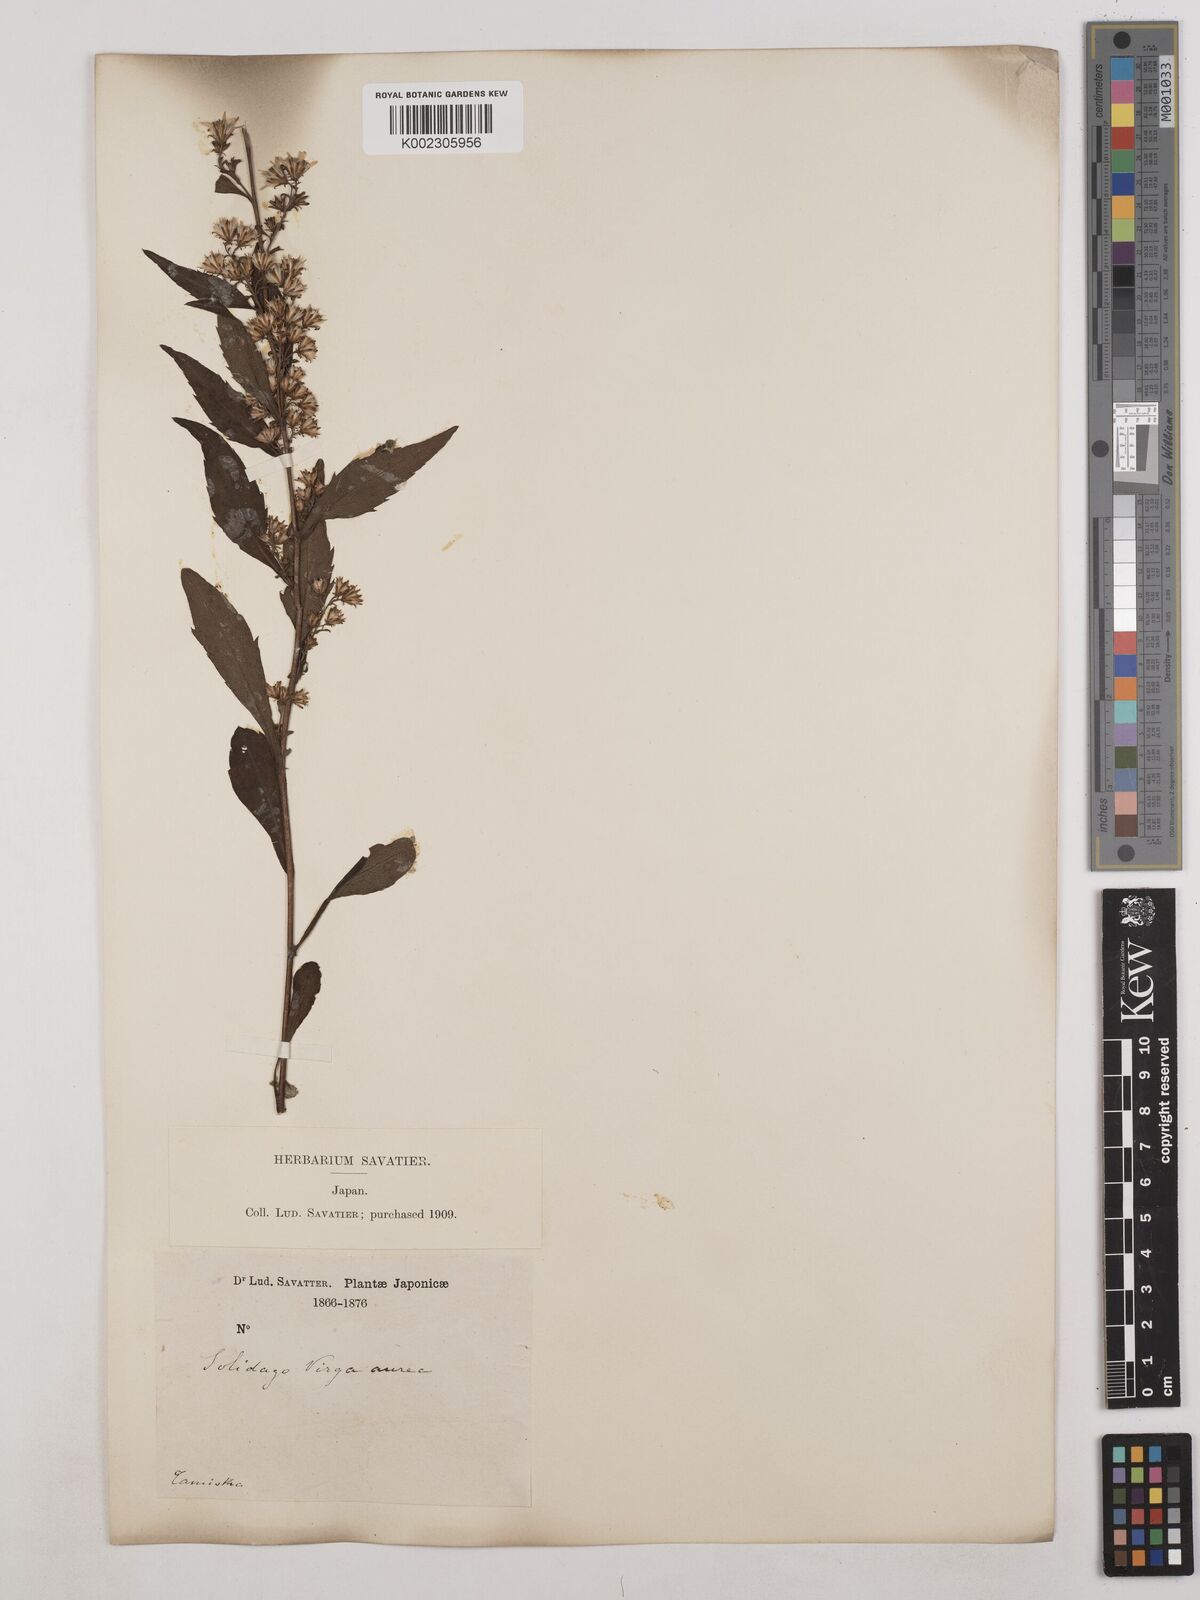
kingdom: Plantae
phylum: Tracheophyta
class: Magnoliopsida
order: Asterales
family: Asteraceae
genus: Solidago
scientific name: Solidago virgaurea
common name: Goldenrod
